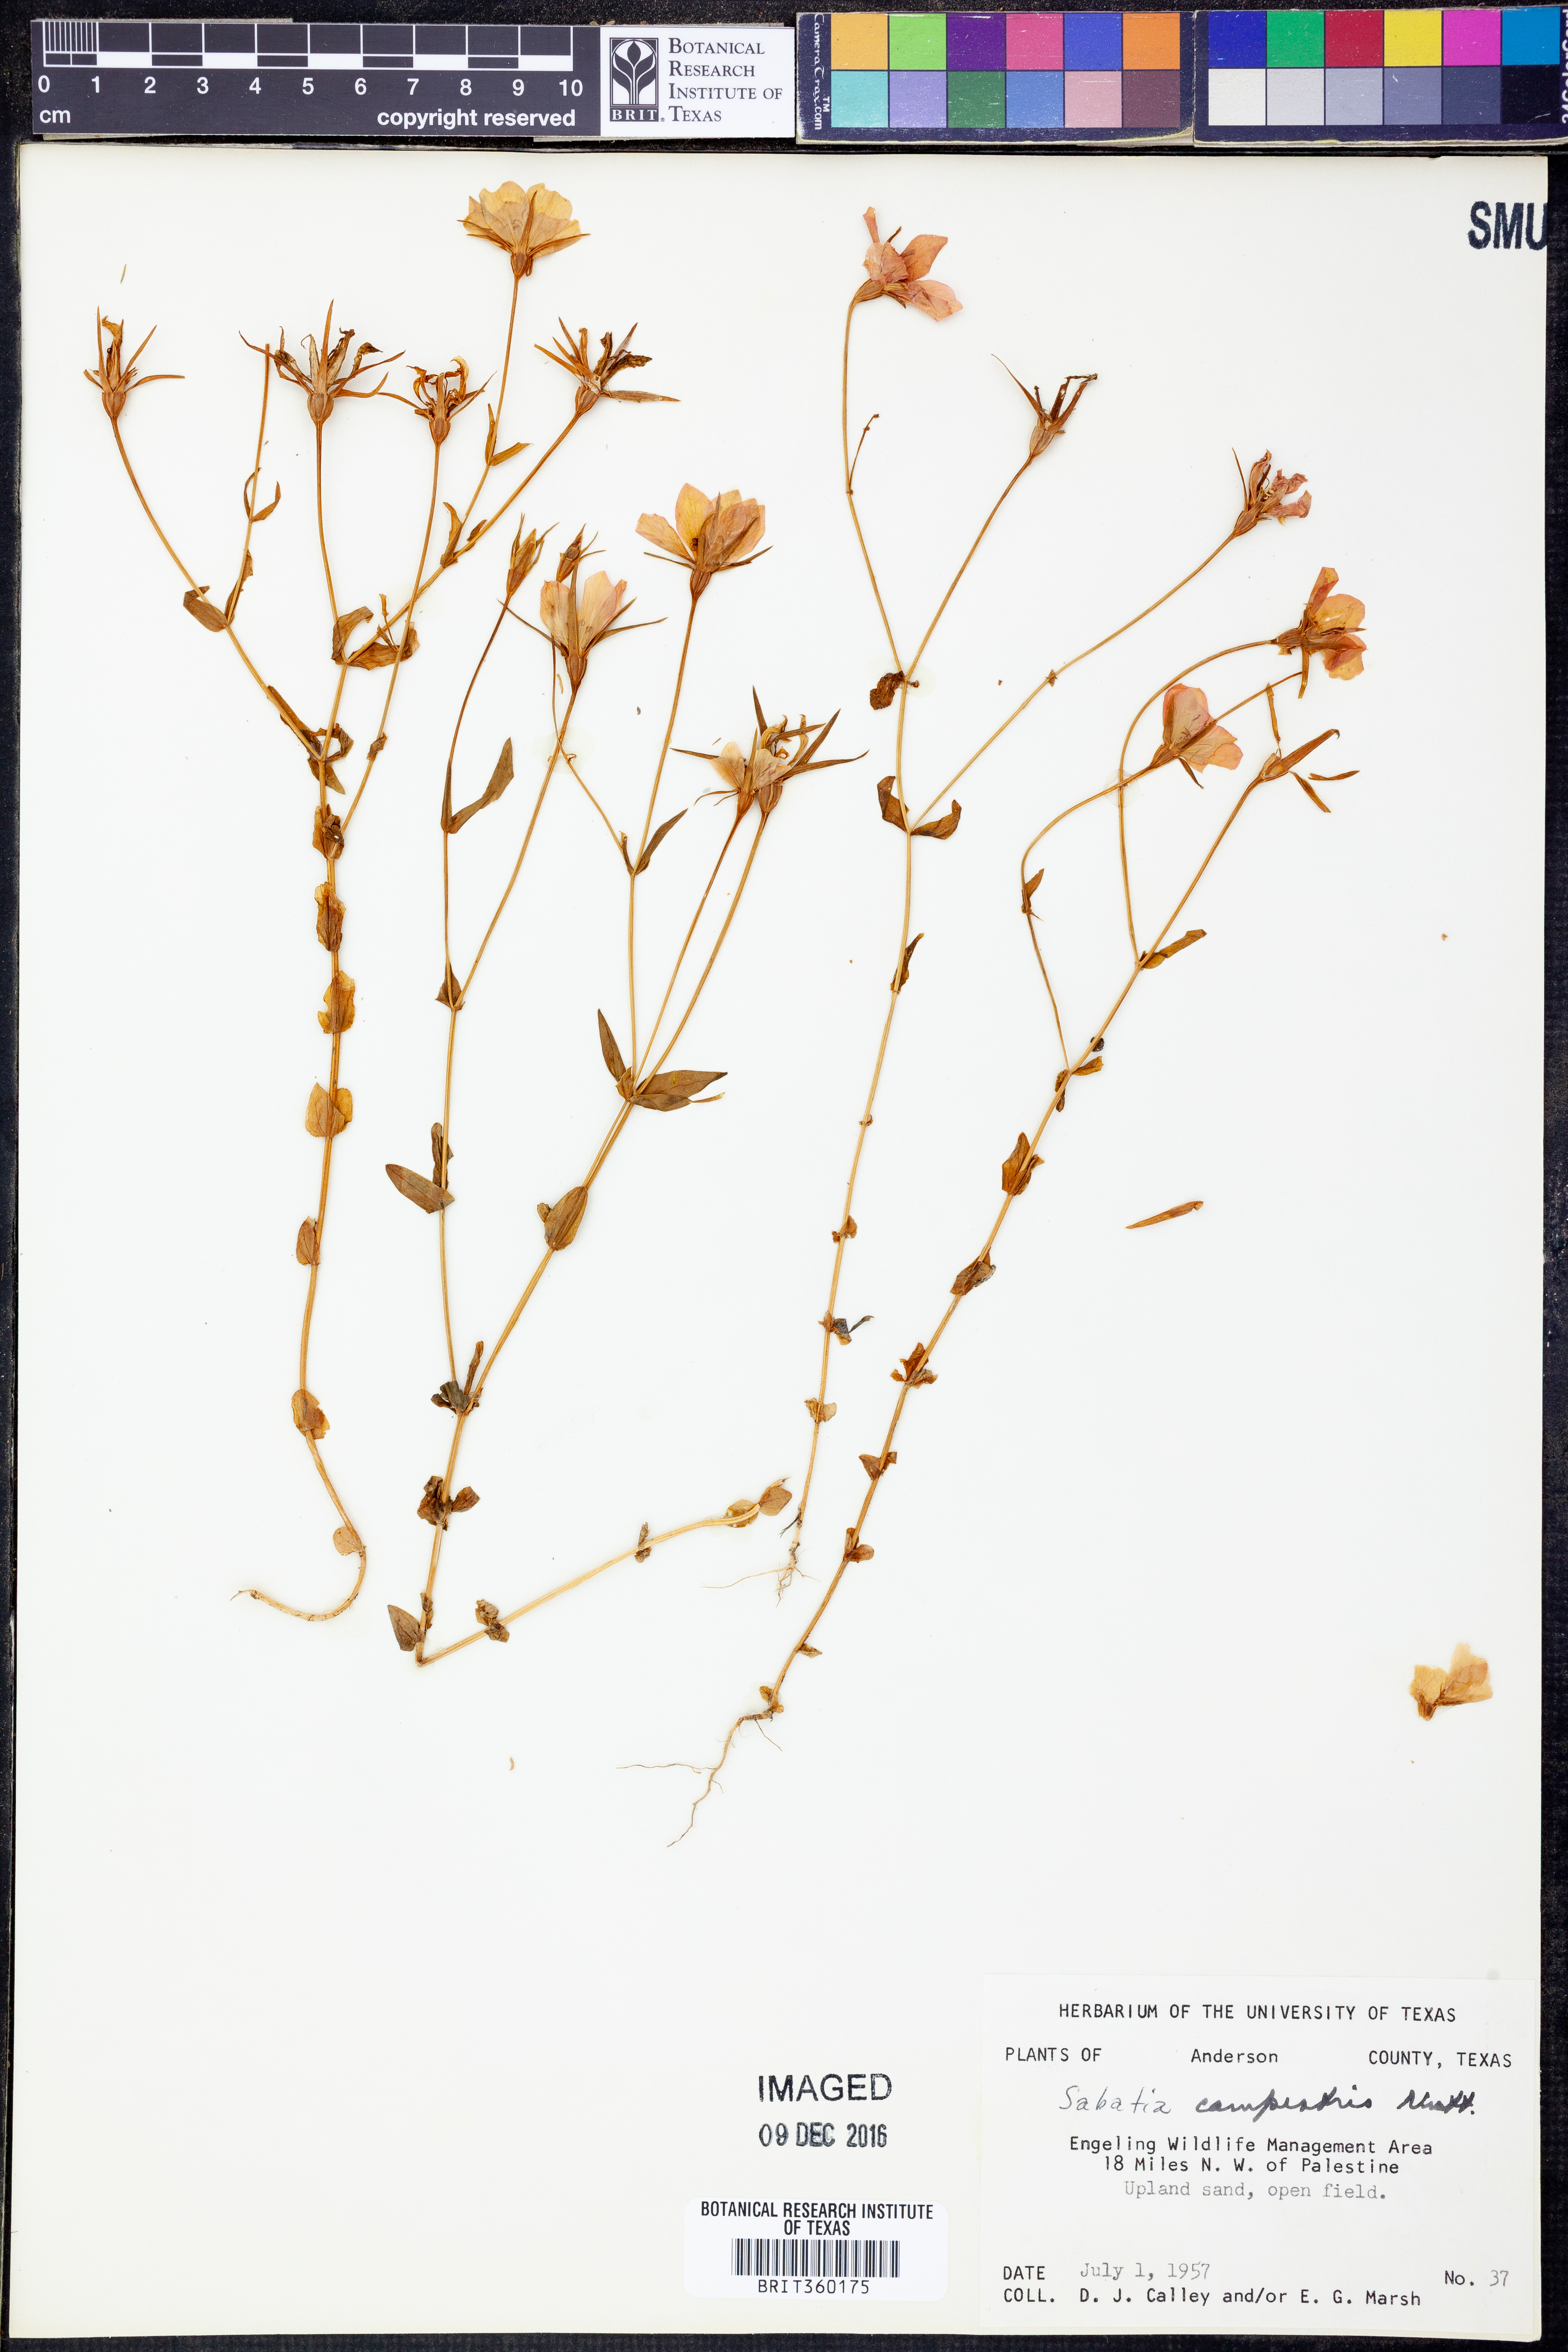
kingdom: Plantae
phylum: Tracheophyta
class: Magnoliopsida
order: Gentianales
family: Gentianaceae
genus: Sabatia
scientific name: Sabatia campestris
